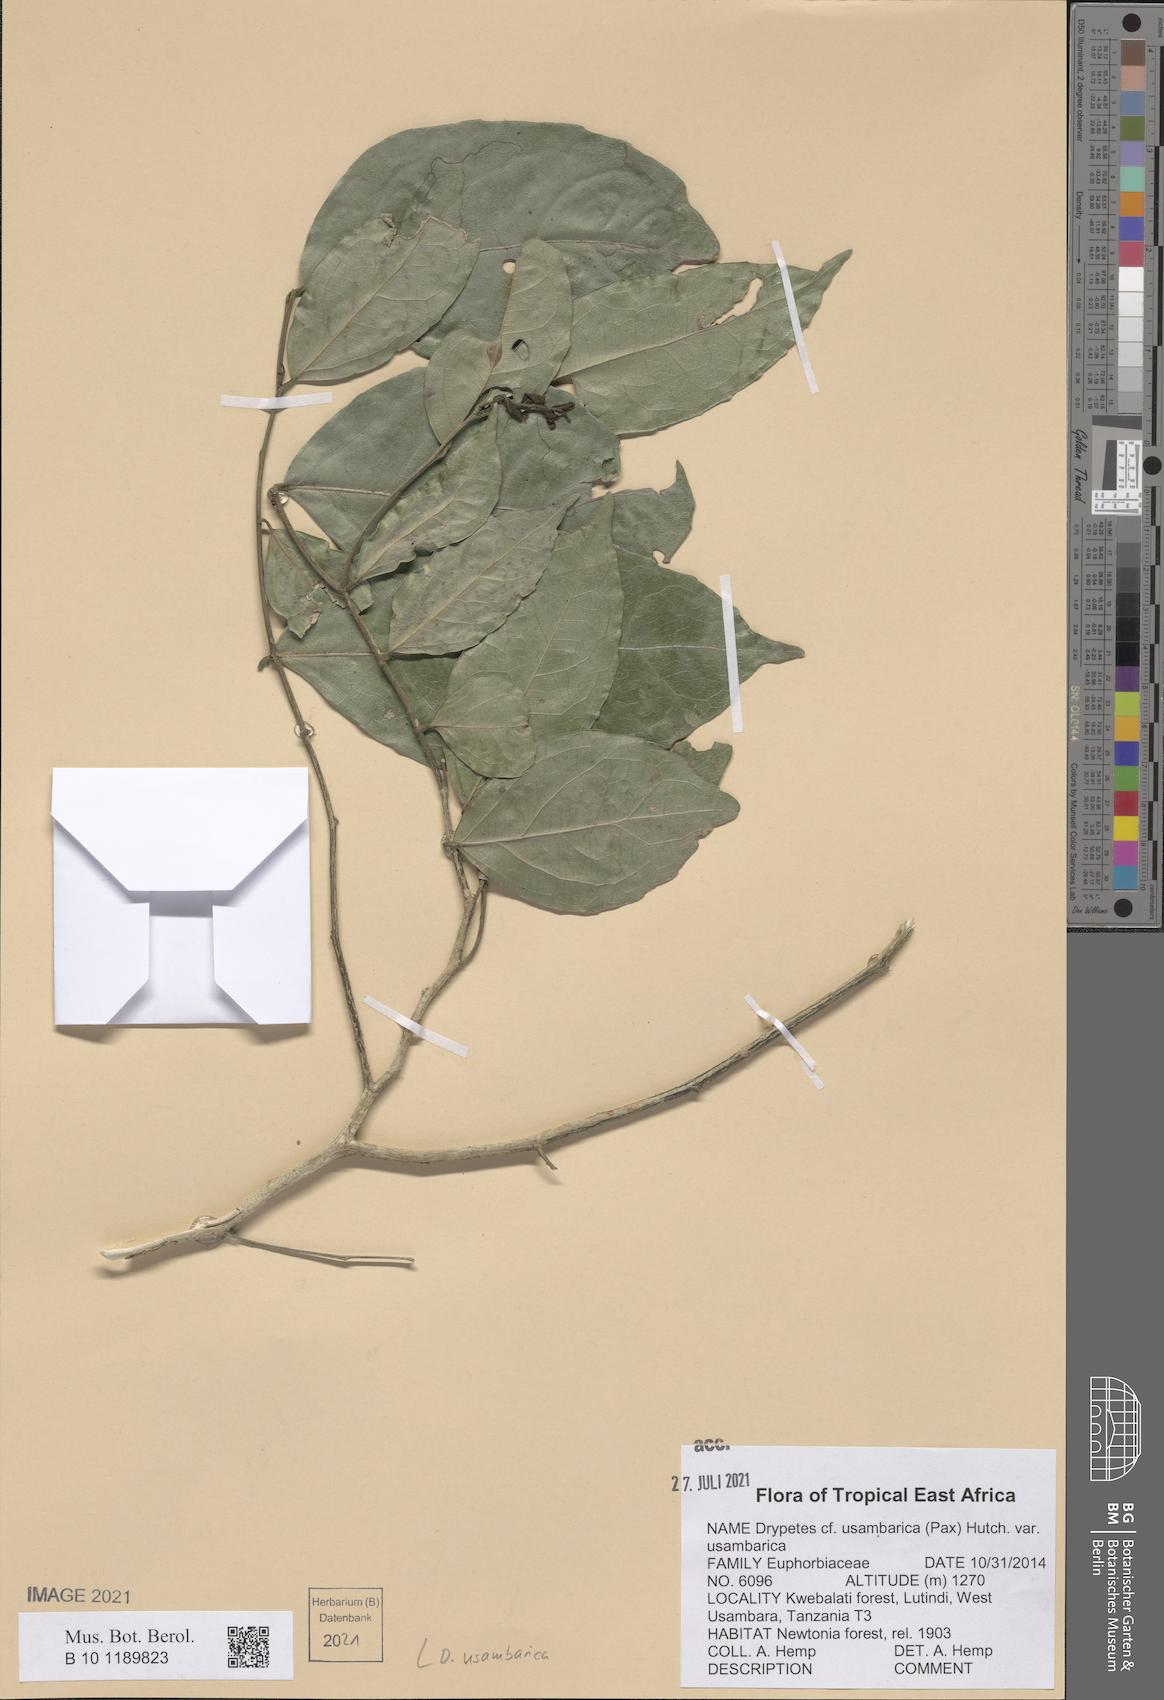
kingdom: Plantae
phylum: Tracheophyta
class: Magnoliopsida
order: Malpighiales
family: Putranjivaceae
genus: Drypetes
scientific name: Drypetes usambarica
